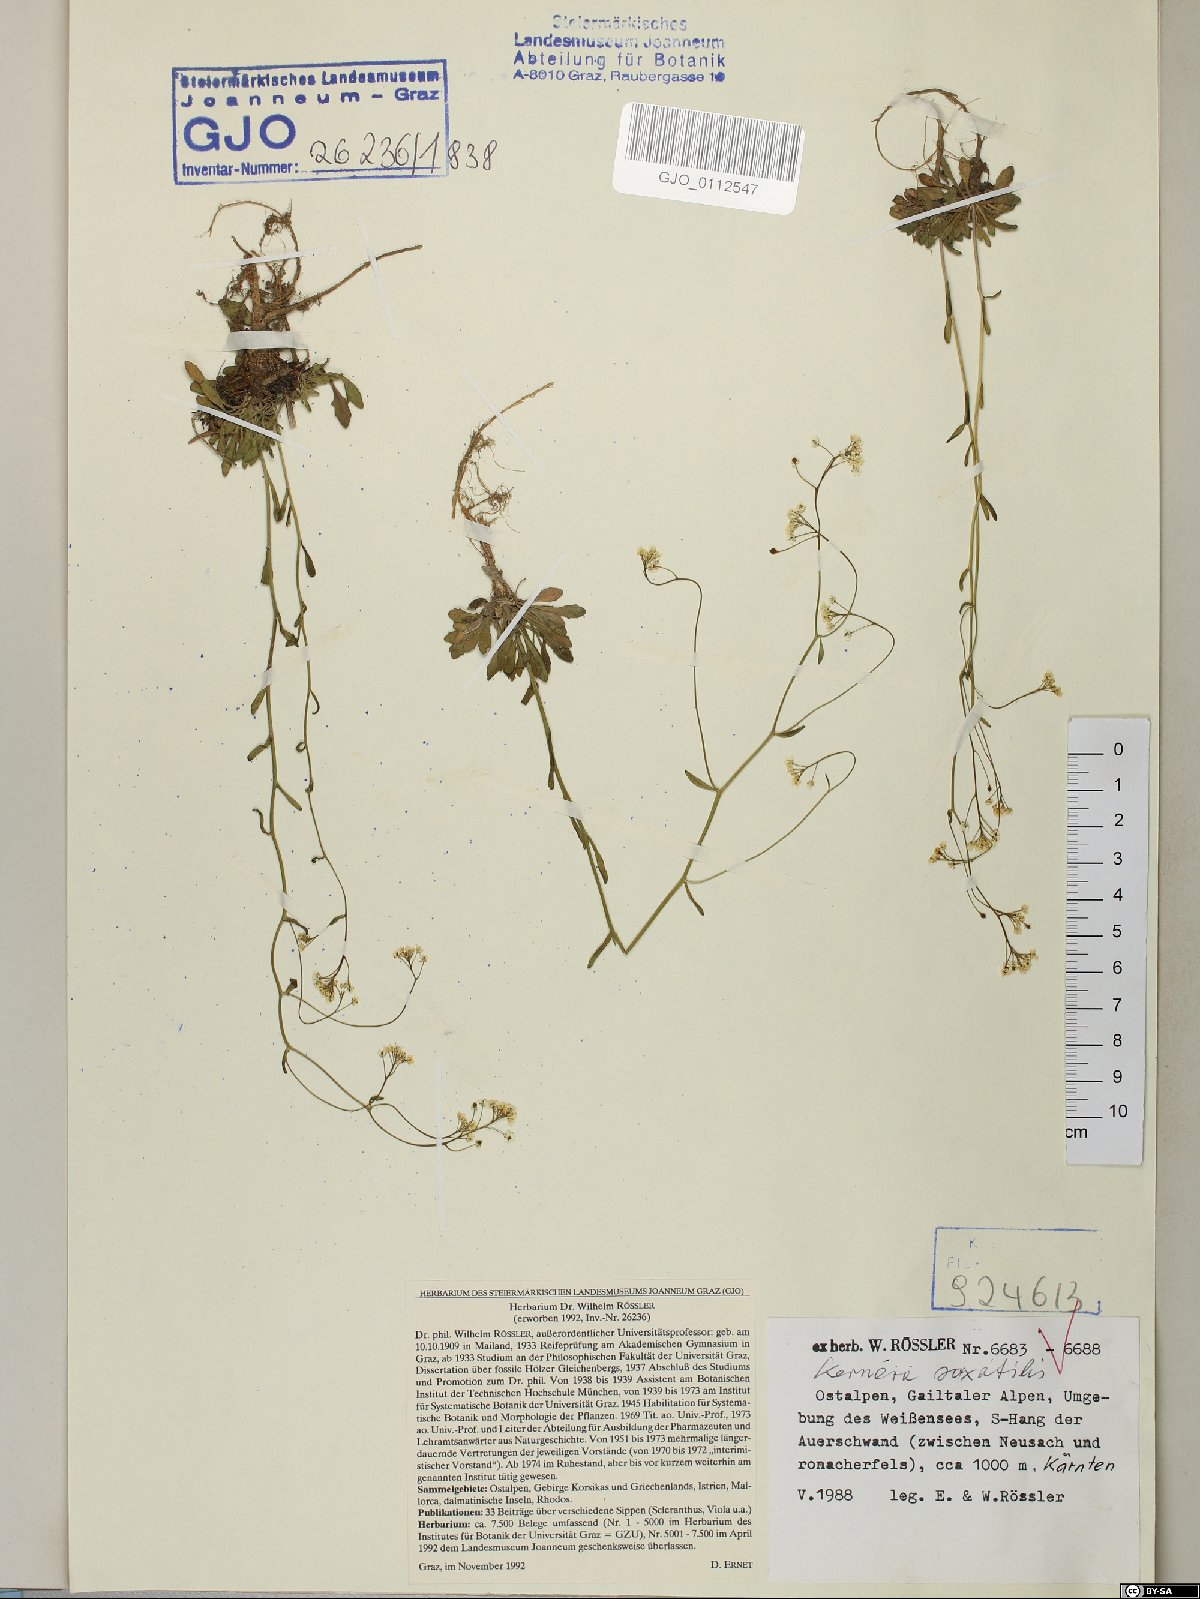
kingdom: Plantae
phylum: Tracheophyta
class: Magnoliopsida
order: Brassicales
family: Brassicaceae
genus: Kernera
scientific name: Kernera saxatilis
